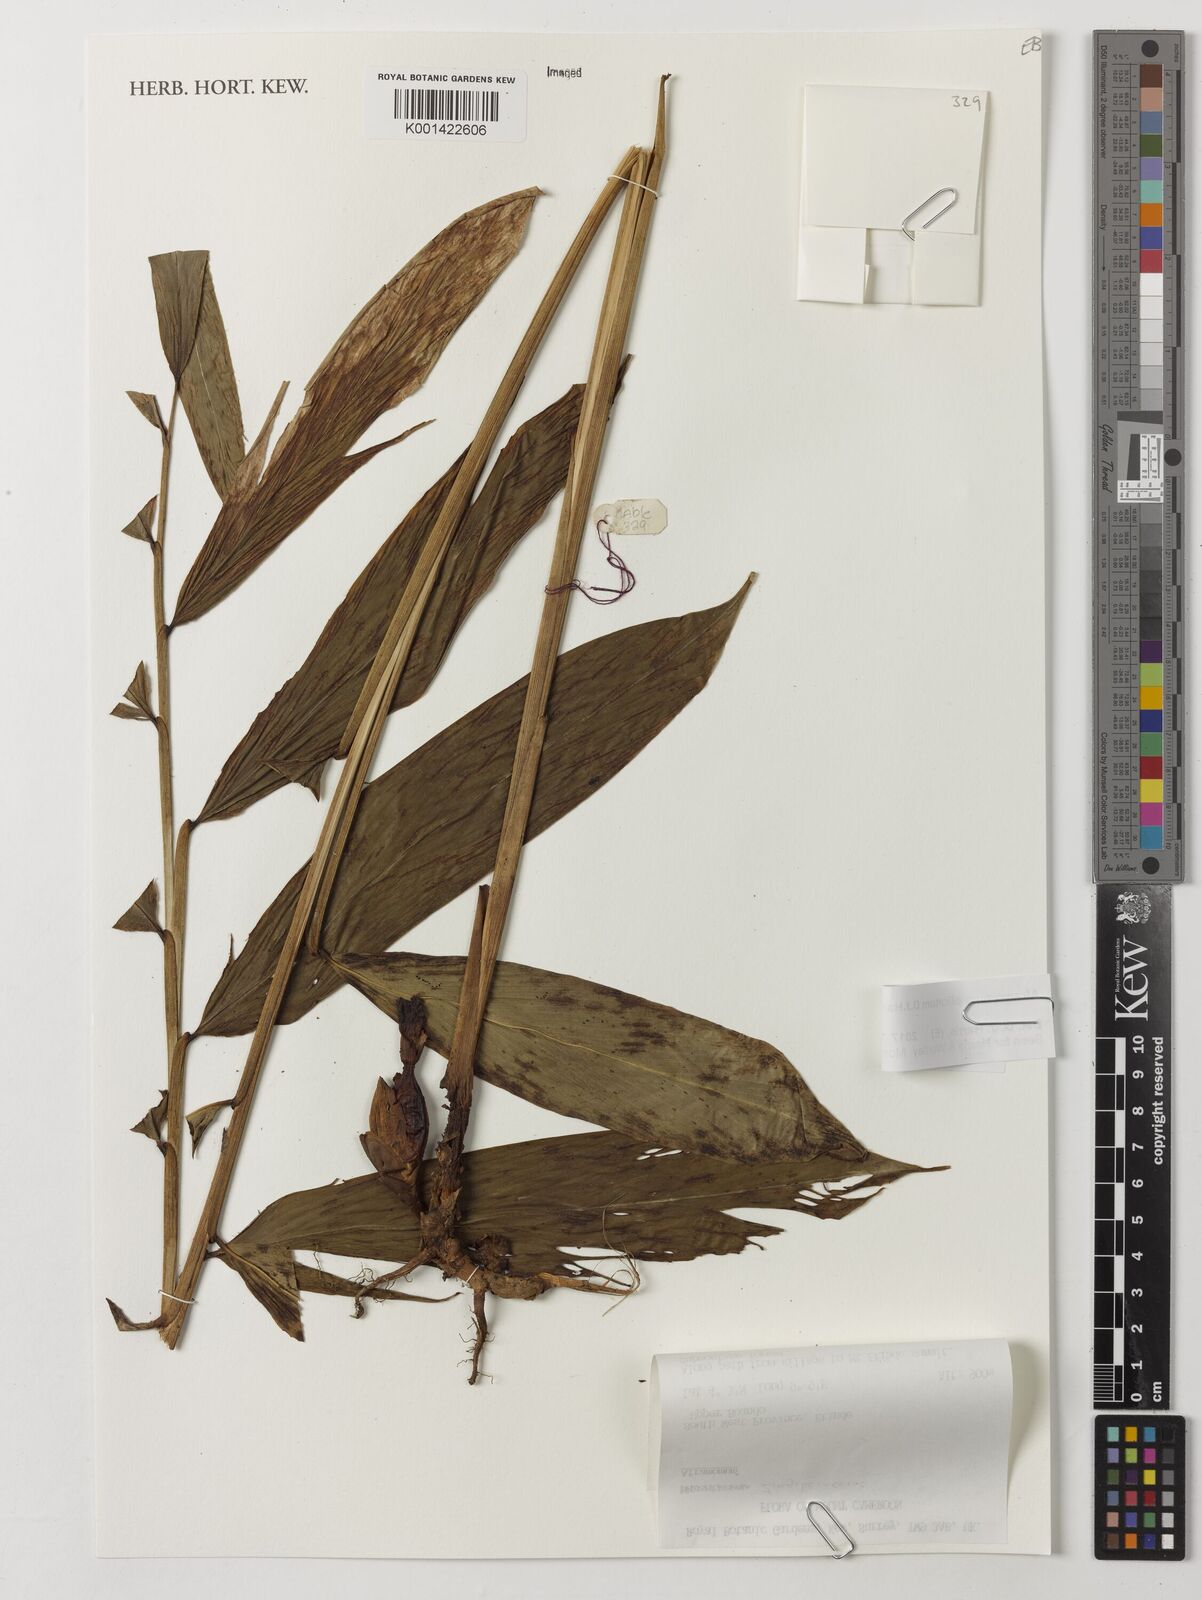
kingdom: Plantae
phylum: Tracheophyta
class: Liliopsida
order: Zingiberales
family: Zingiberaceae
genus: Aframomum
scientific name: Aframomum plicatum
